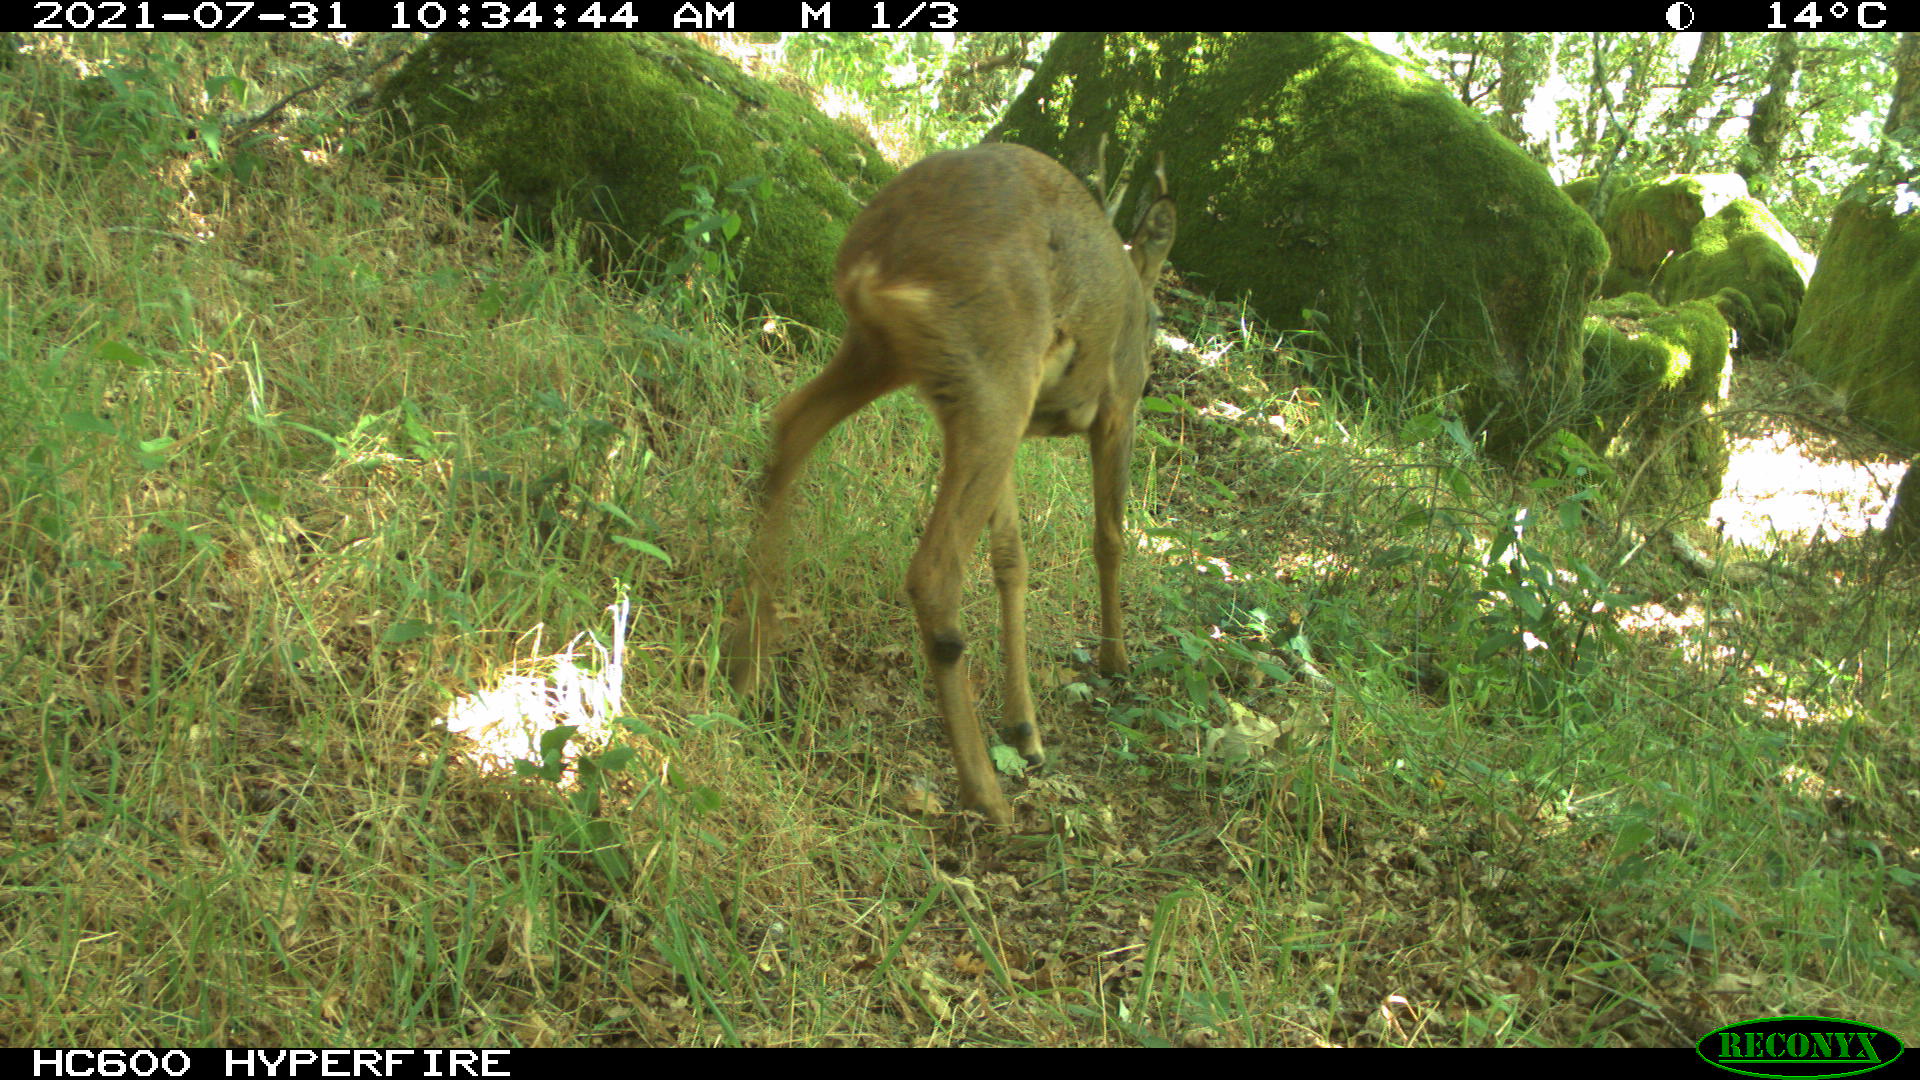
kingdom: Animalia
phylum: Chordata
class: Mammalia
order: Artiodactyla
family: Cervidae
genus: Capreolus
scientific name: Capreolus capreolus
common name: Western roe deer
